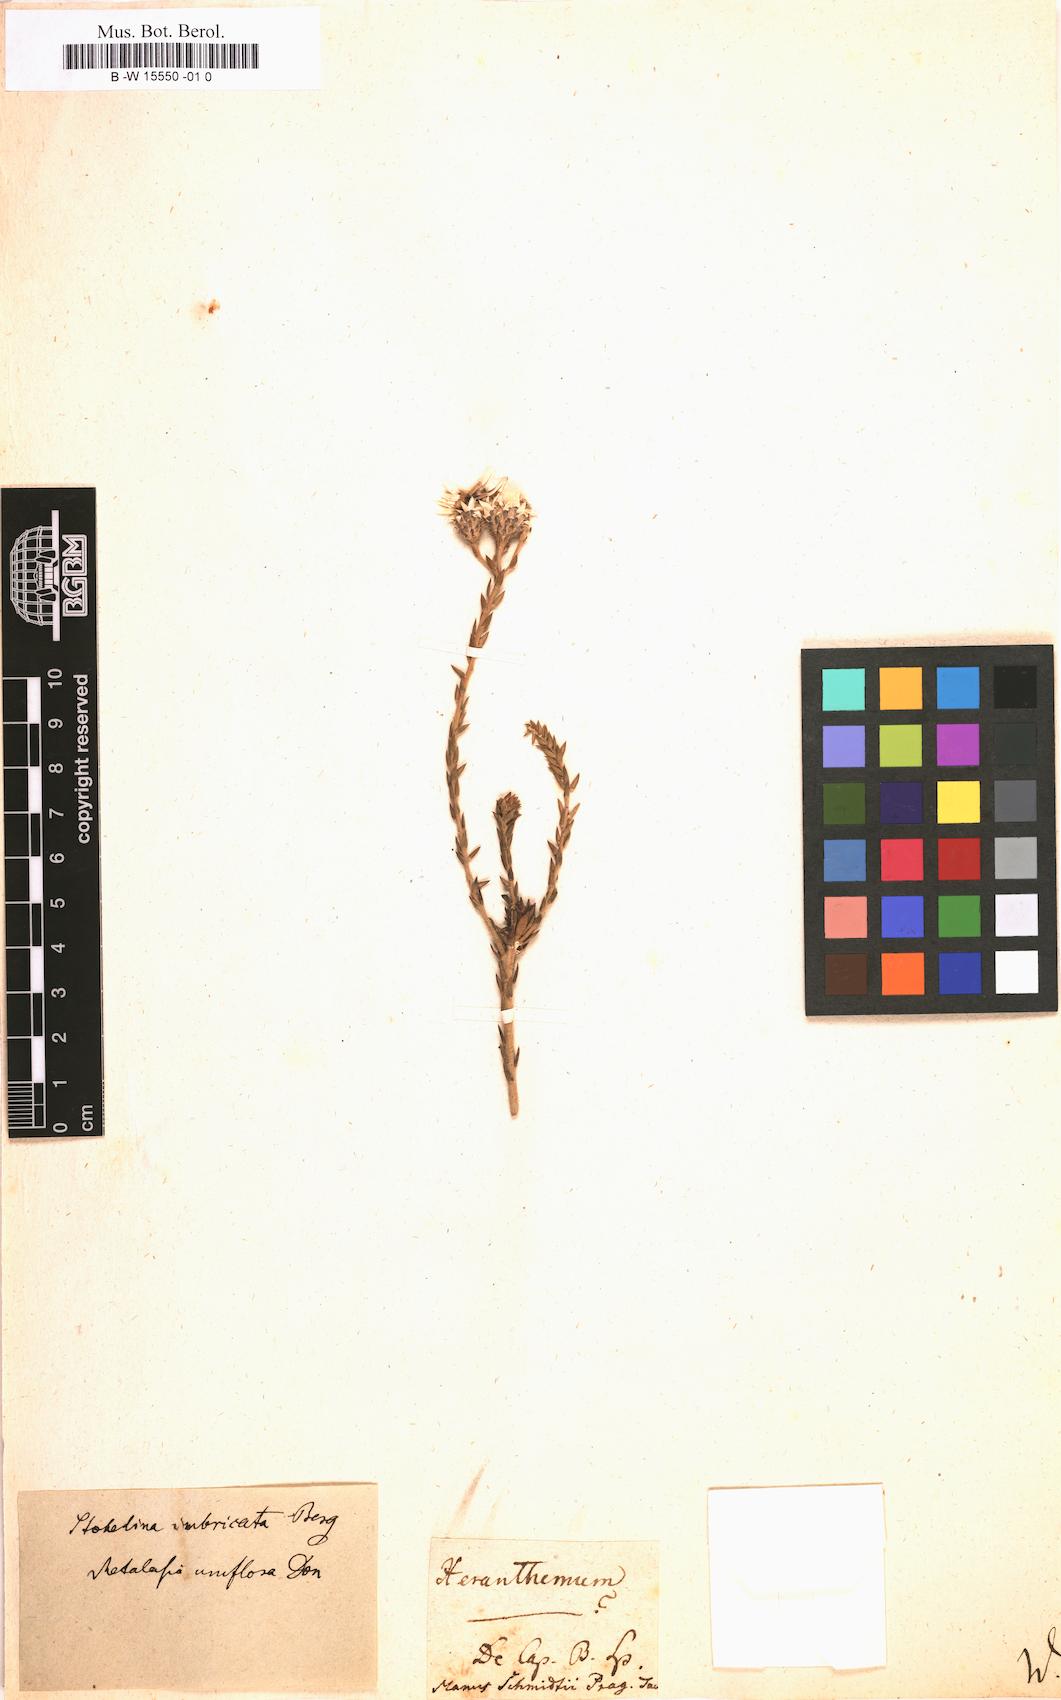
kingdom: Plantae
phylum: Tracheophyta
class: Magnoliopsida
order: Asterales
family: Asteraceae
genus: Helichrysum
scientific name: Helichrysum
